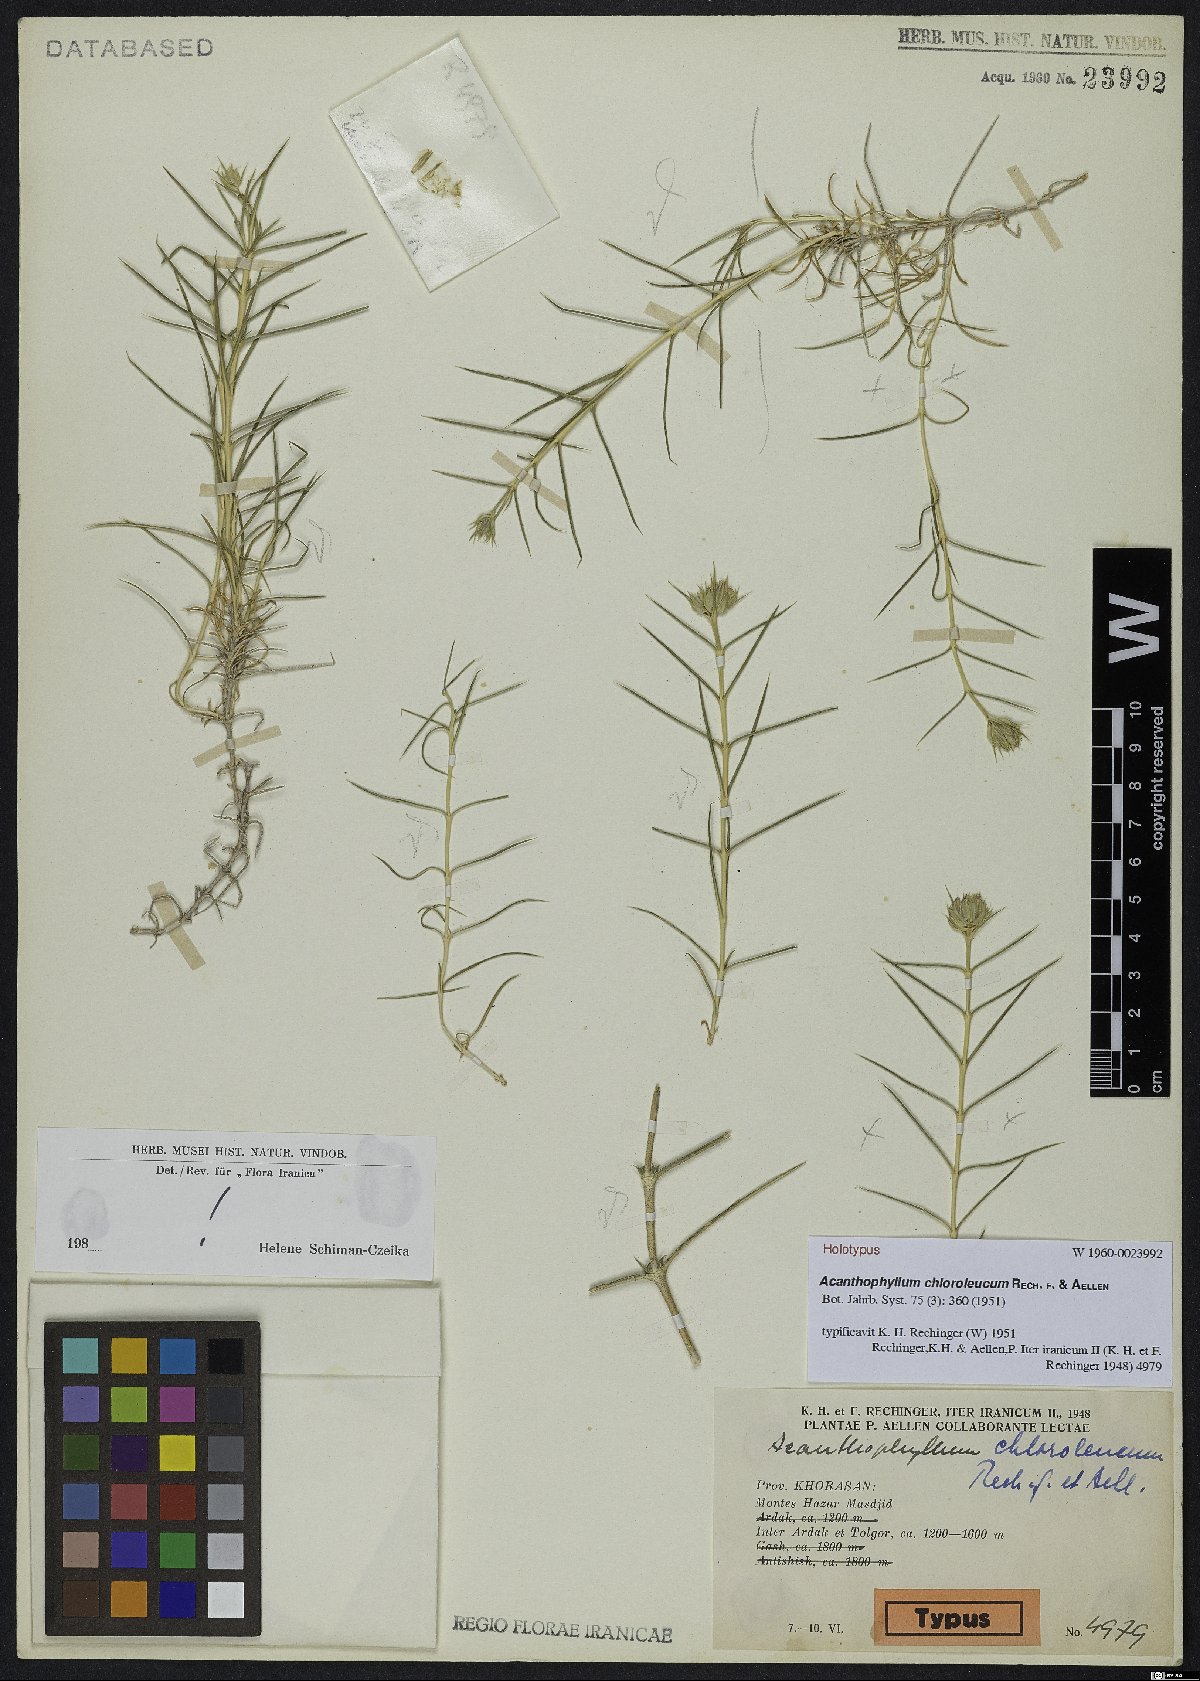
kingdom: Plantae
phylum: Tracheophyta
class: Magnoliopsida
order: Caryophyllales
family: Caryophyllaceae
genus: Acanthophyllum
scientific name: Acanthophyllum glandulosum
